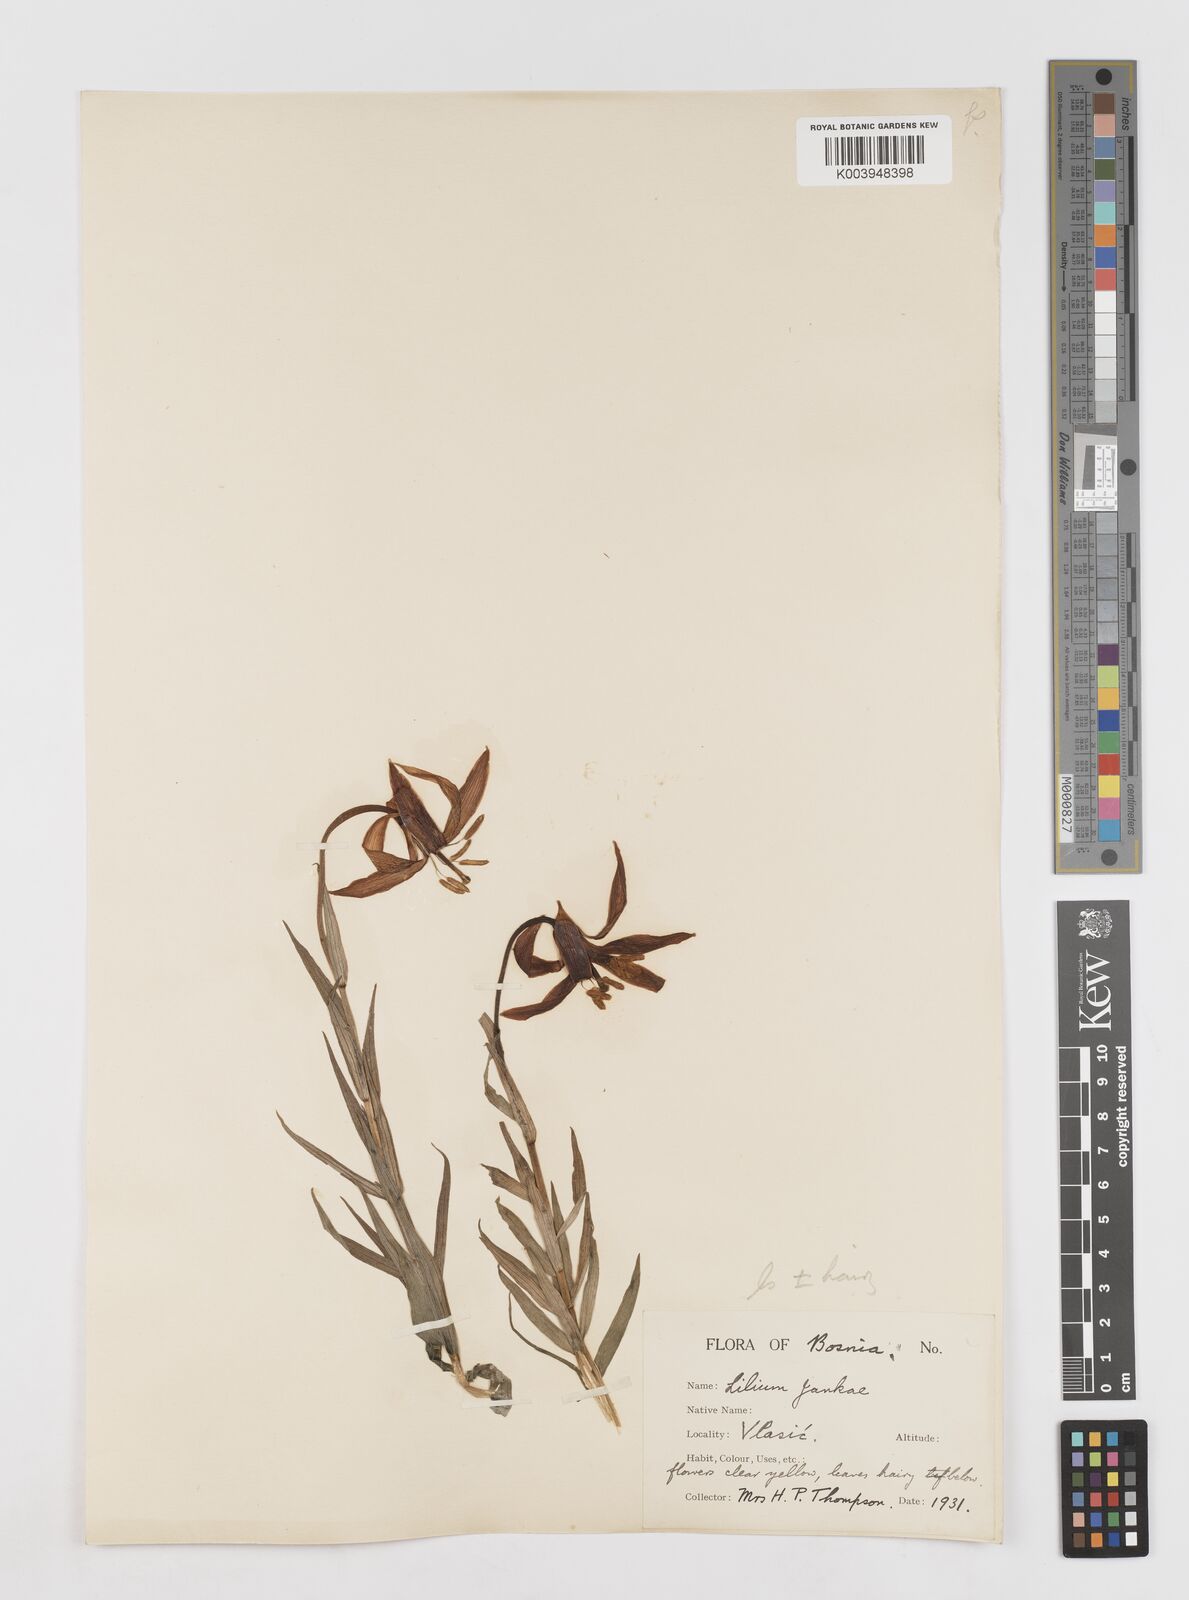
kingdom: Plantae
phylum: Tracheophyta
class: Liliopsida
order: Liliales
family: Liliaceae
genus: Lilium
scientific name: Lilium
